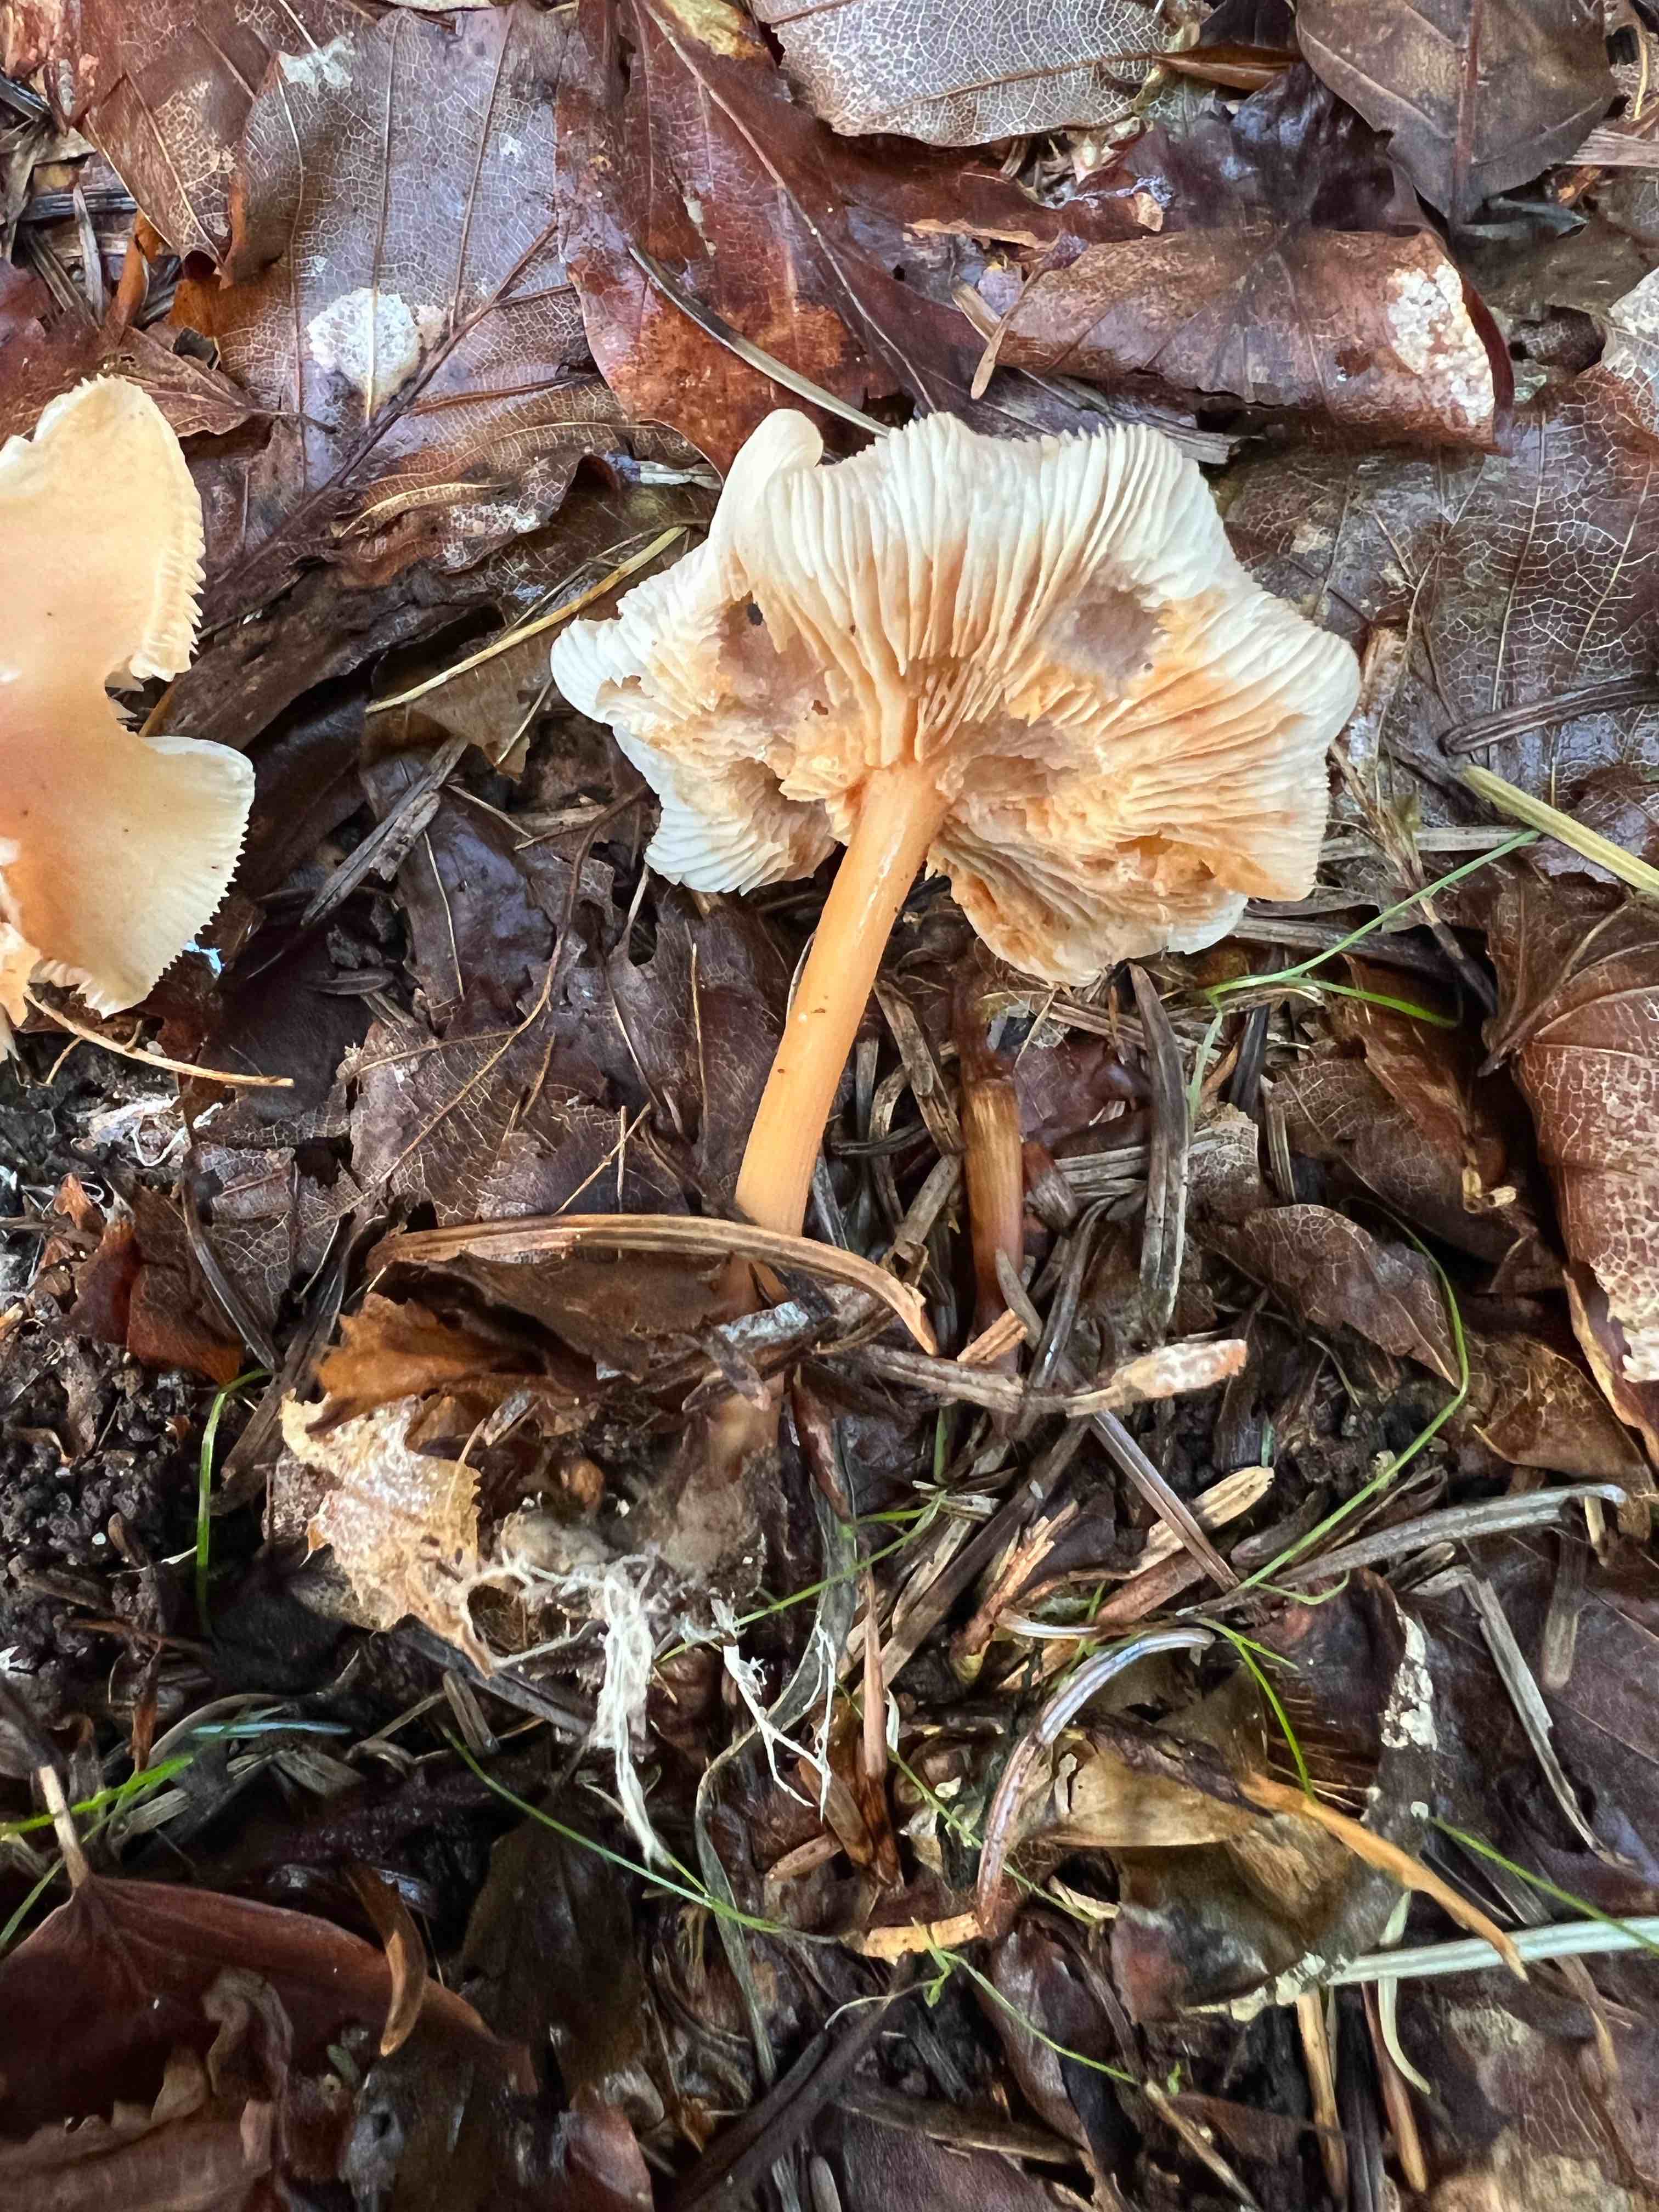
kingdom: Fungi
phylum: Basidiomycota
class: Agaricomycetes
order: Agaricales
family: Omphalotaceae
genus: Gymnopus
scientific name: Gymnopus dryophilus
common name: løv-fladhat
